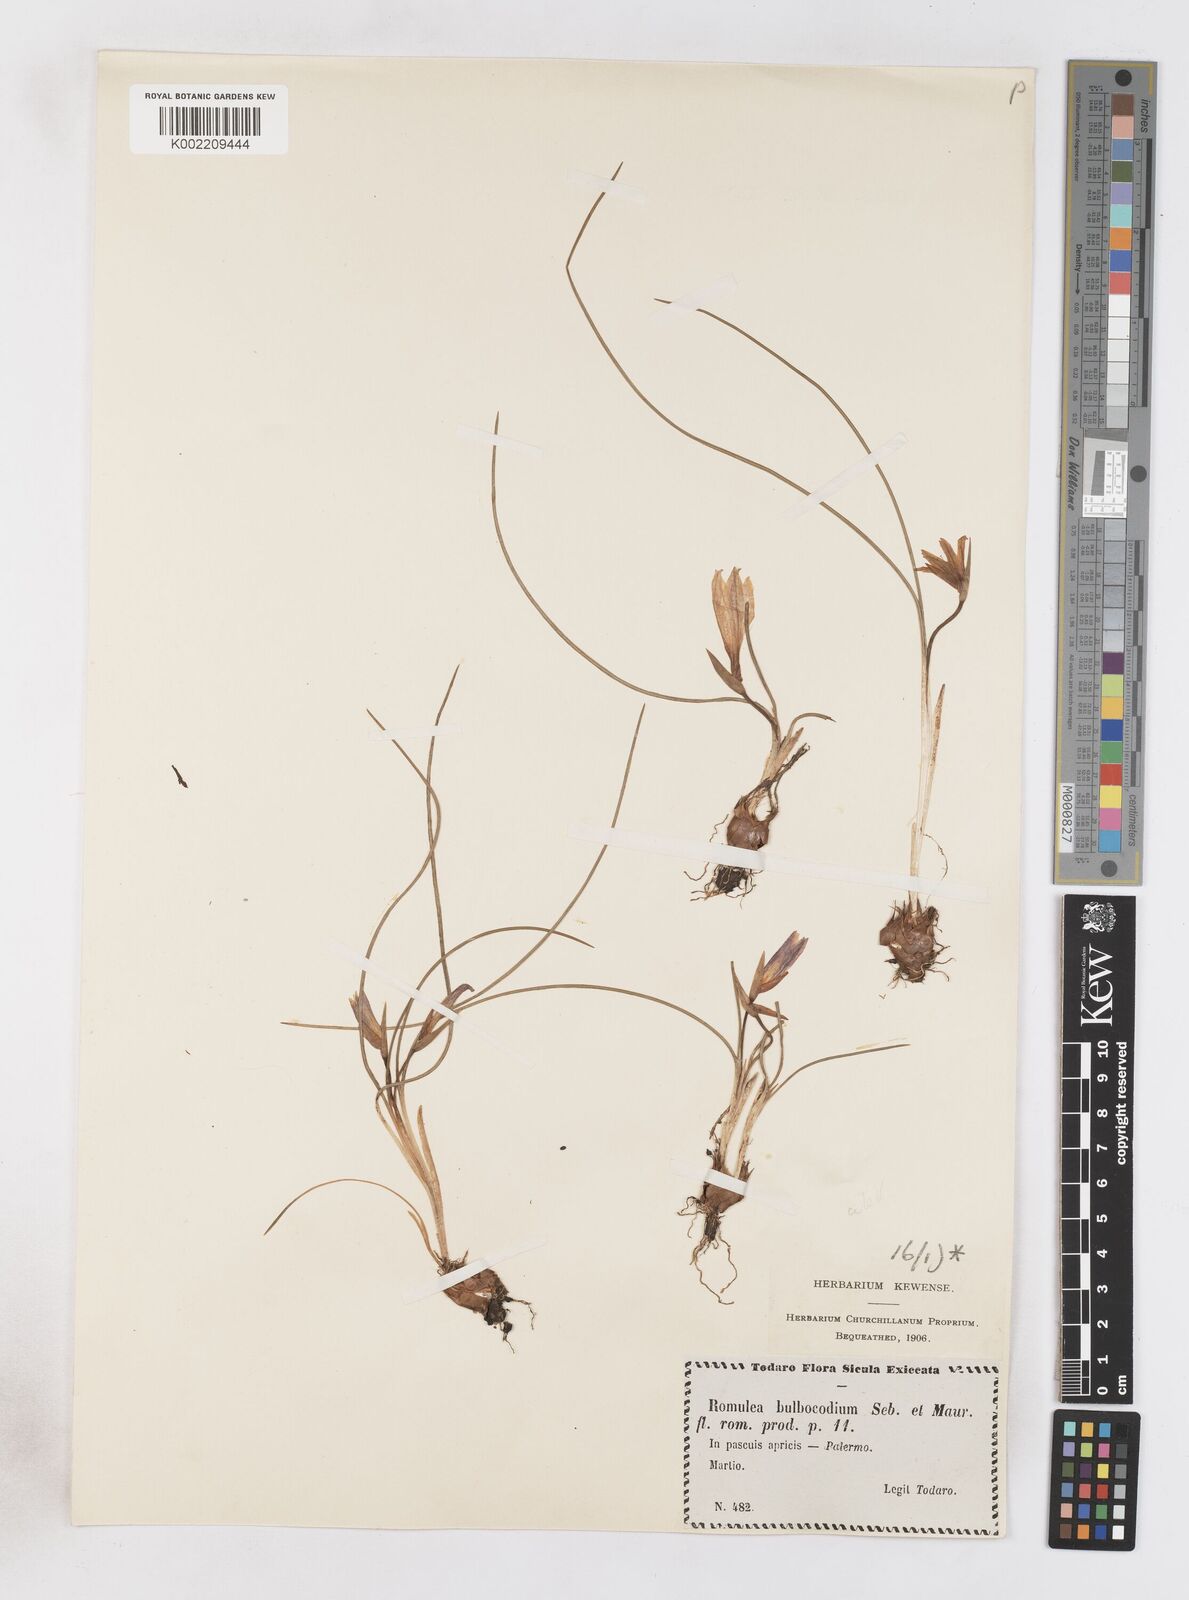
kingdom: Plantae
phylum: Tracheophyta
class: Liliopsida
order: Asparagales
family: Iridaceae
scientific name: Iridaceae
